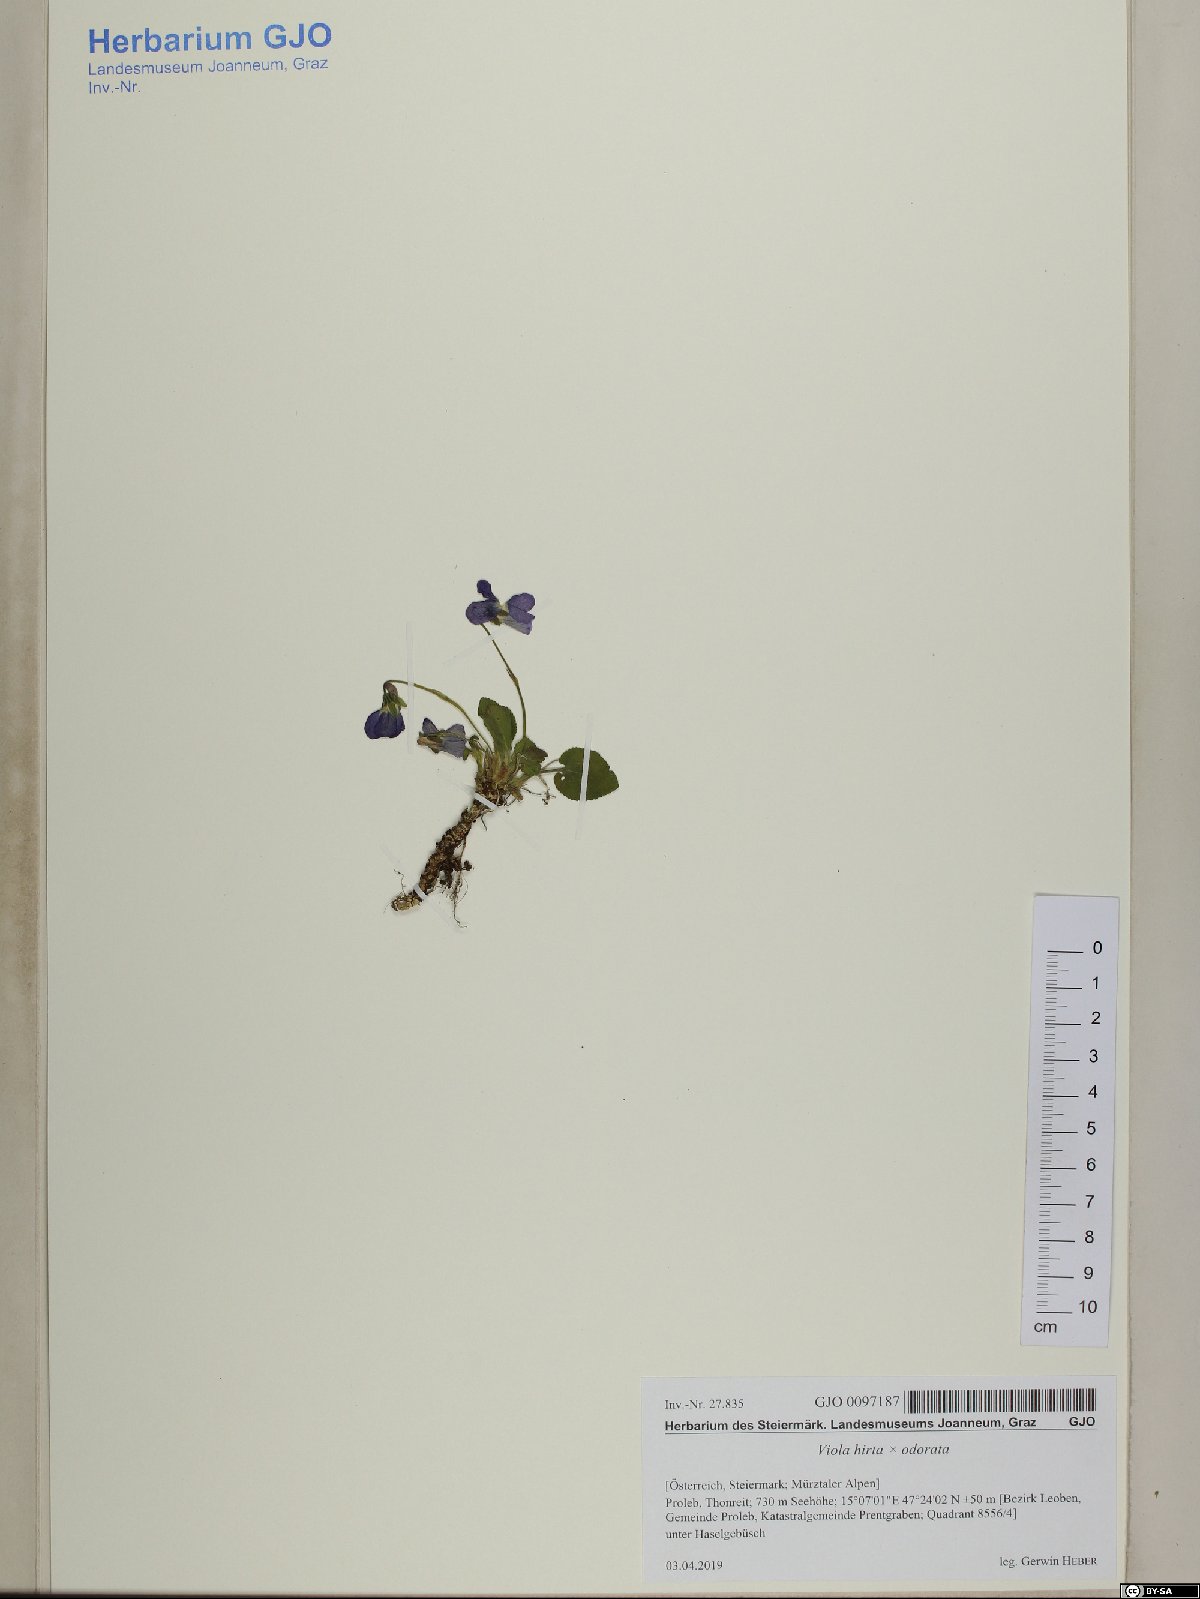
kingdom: Plantae
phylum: Tracheophyta
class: Magnoliopsida
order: Malpighiales
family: Violaceae
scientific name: Violaceae
